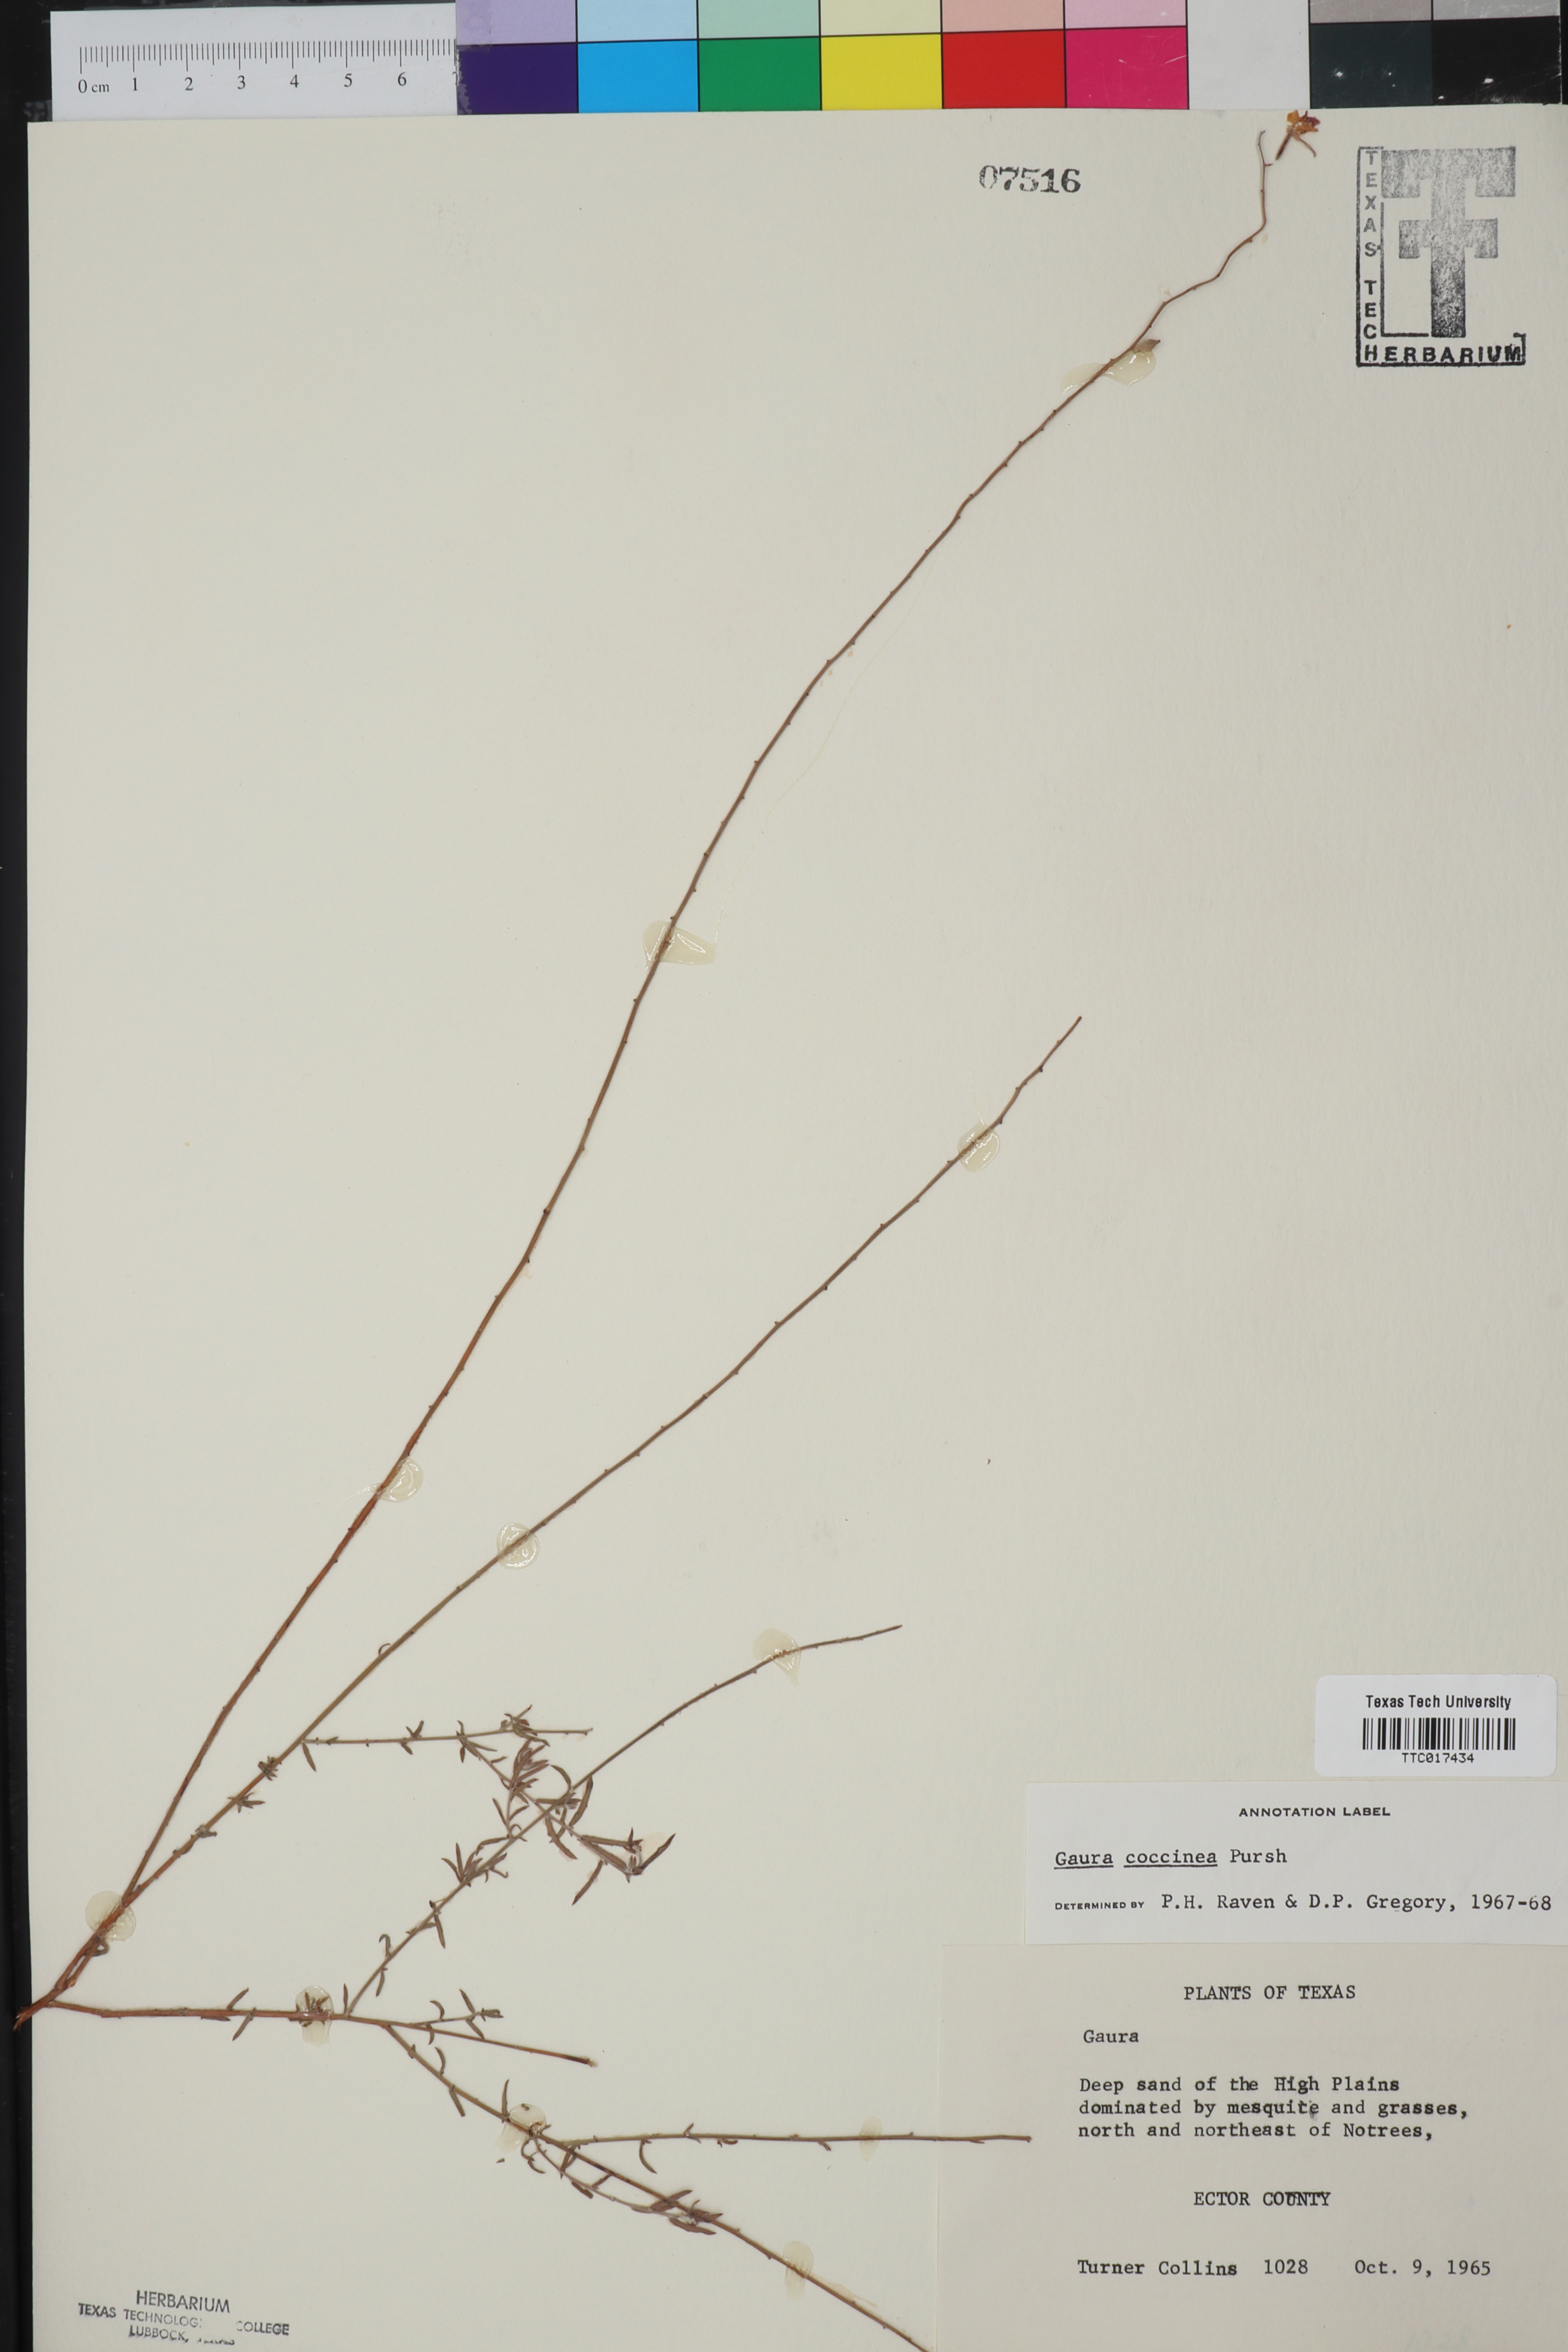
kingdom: Plantae
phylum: Tracheophyta
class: Magnoliopsida
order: Myrtales
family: Onagraceae
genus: Oenothera
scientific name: Oenothera suffrutescens
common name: Scarlet beeblossom
